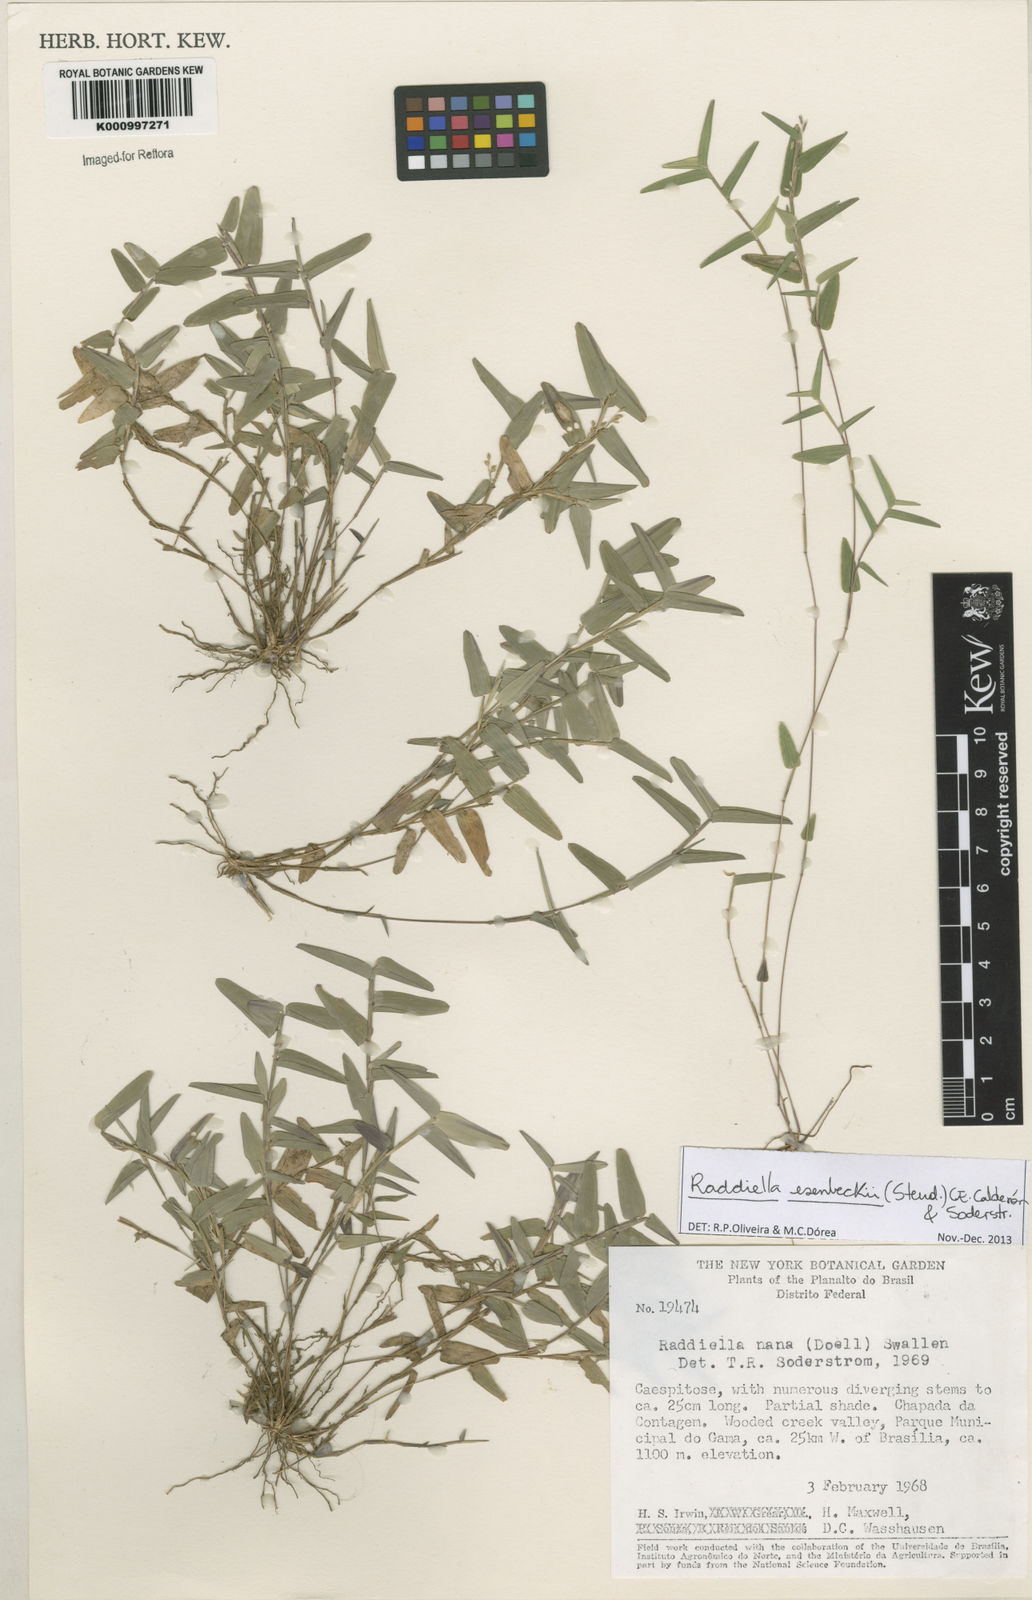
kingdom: Plantae
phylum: Tracheophyta
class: Liliopsida
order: Poales
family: Poaceae
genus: Raddiella
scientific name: Raddiella
